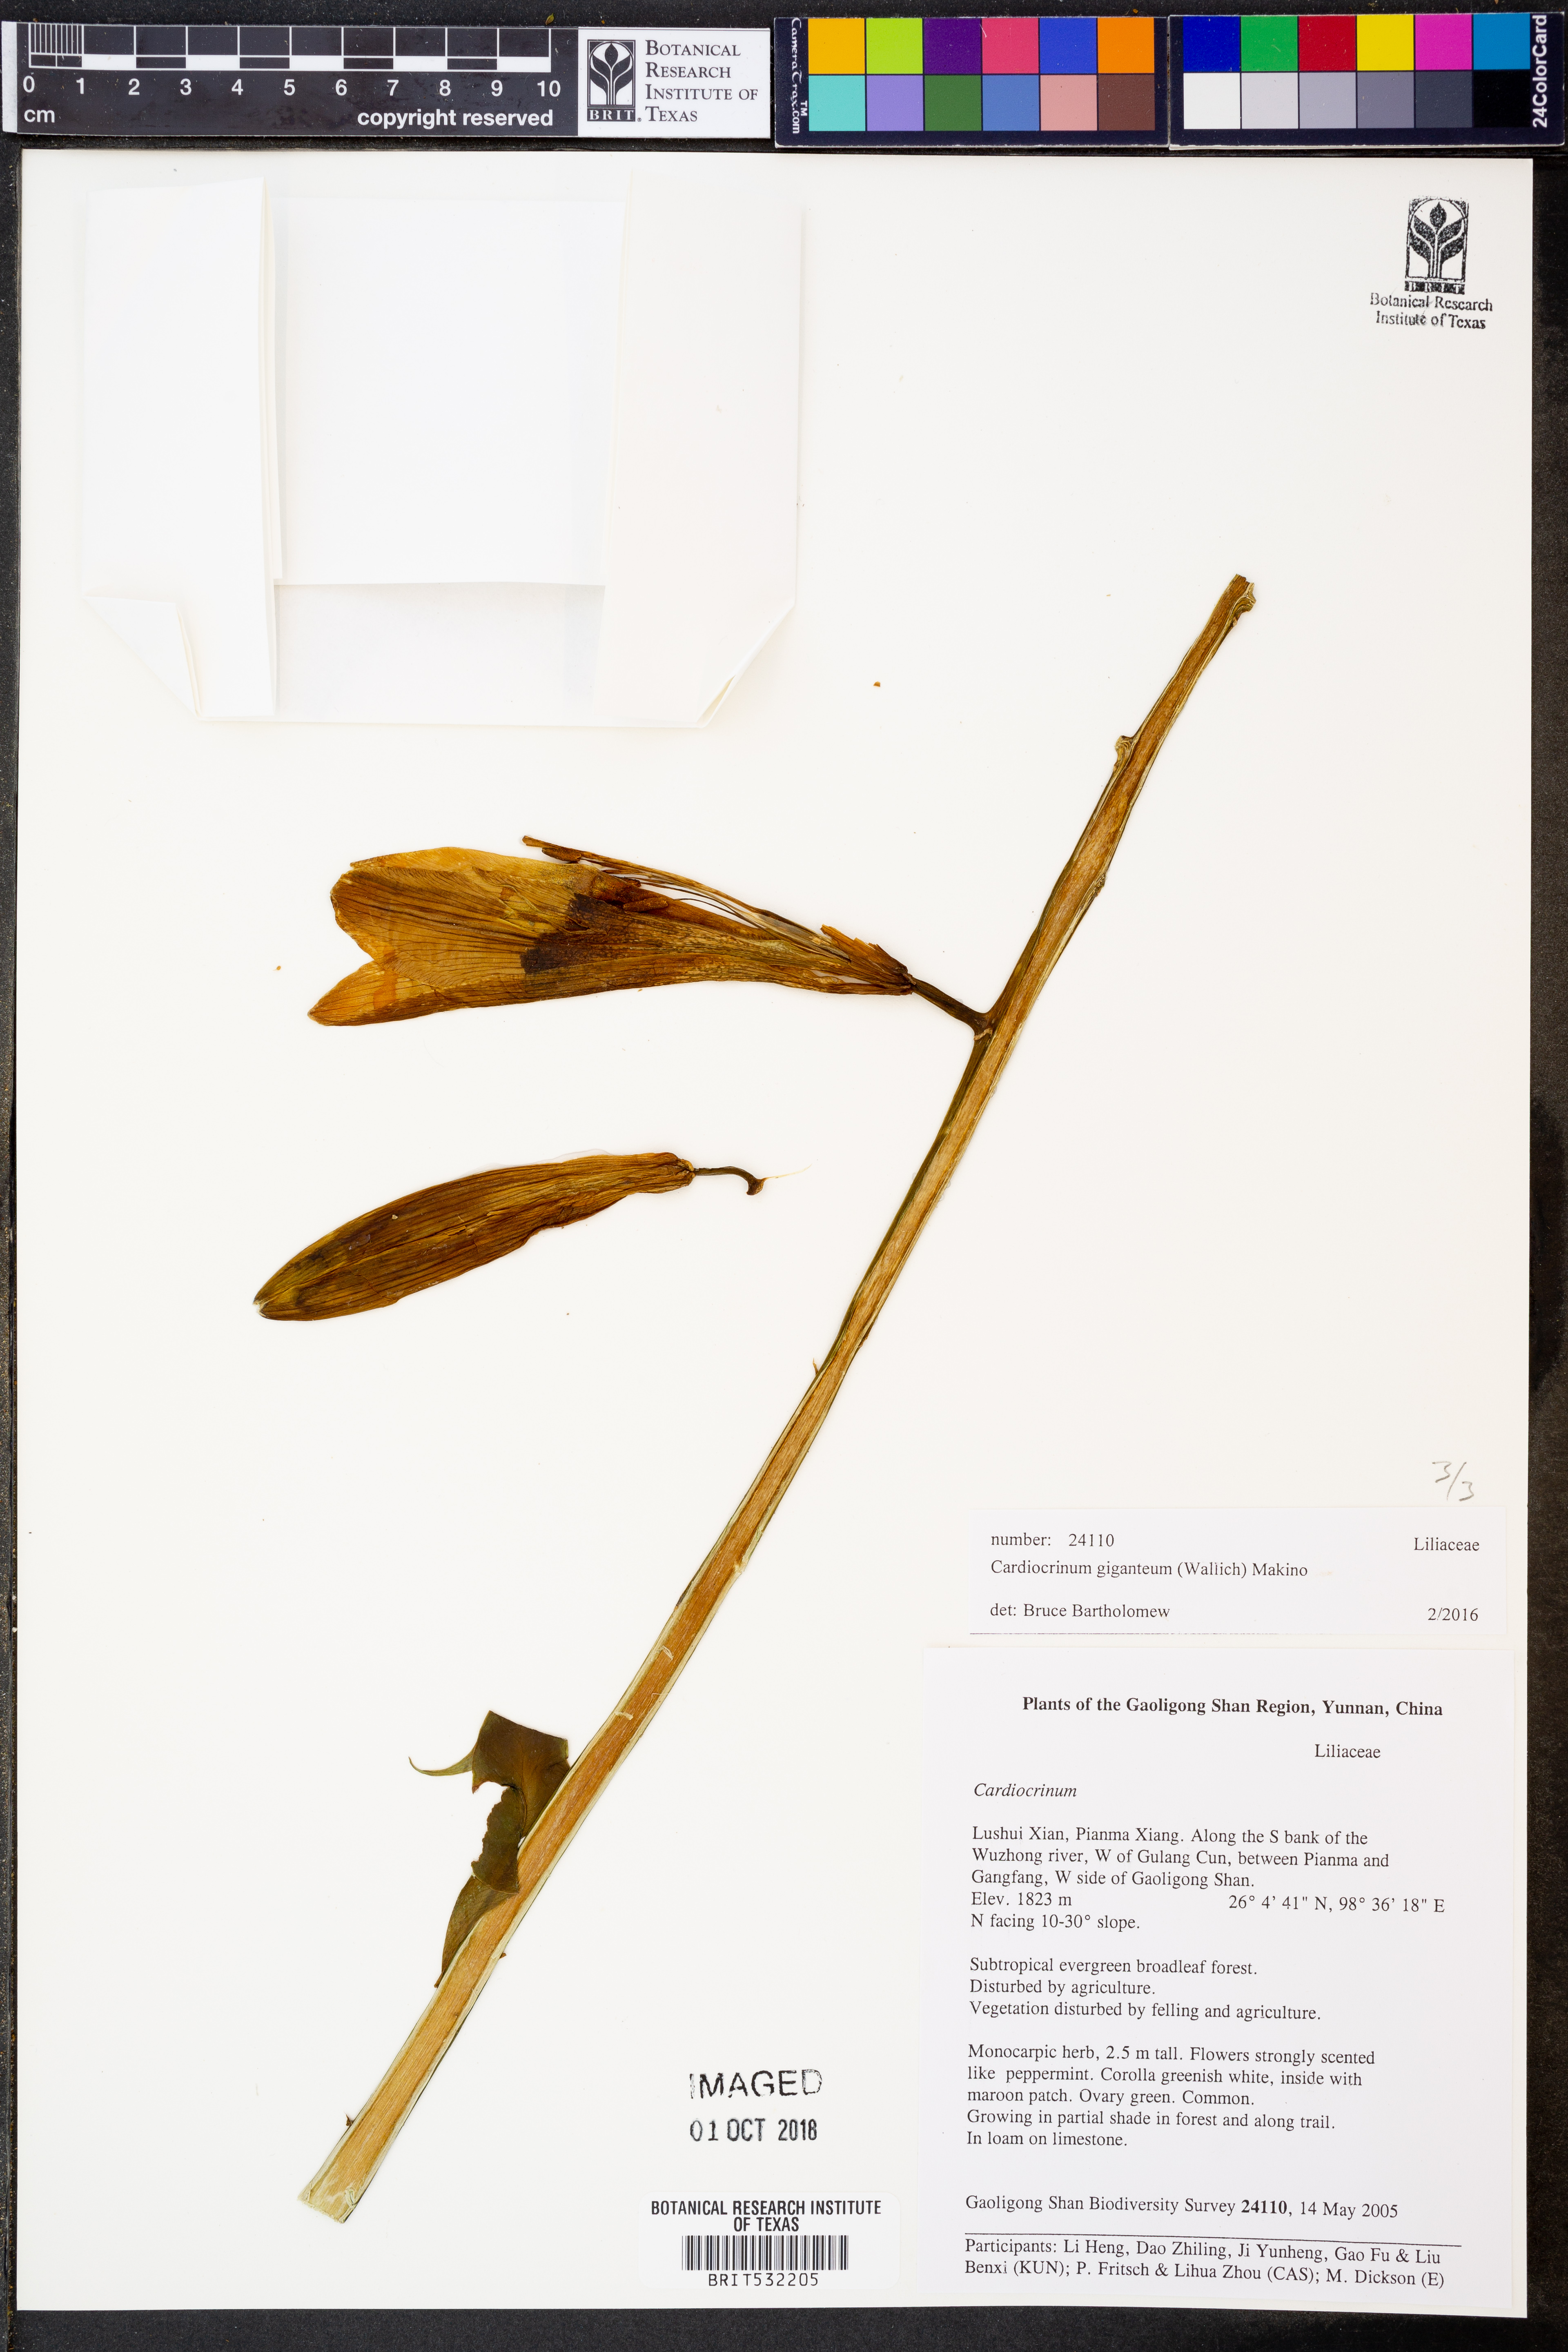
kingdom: Plantae
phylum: Tracheophyta
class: Liliopsida
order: Liliales
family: Liliaceae
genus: Cardiocrinum
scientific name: Cardiocrinum giganteum
